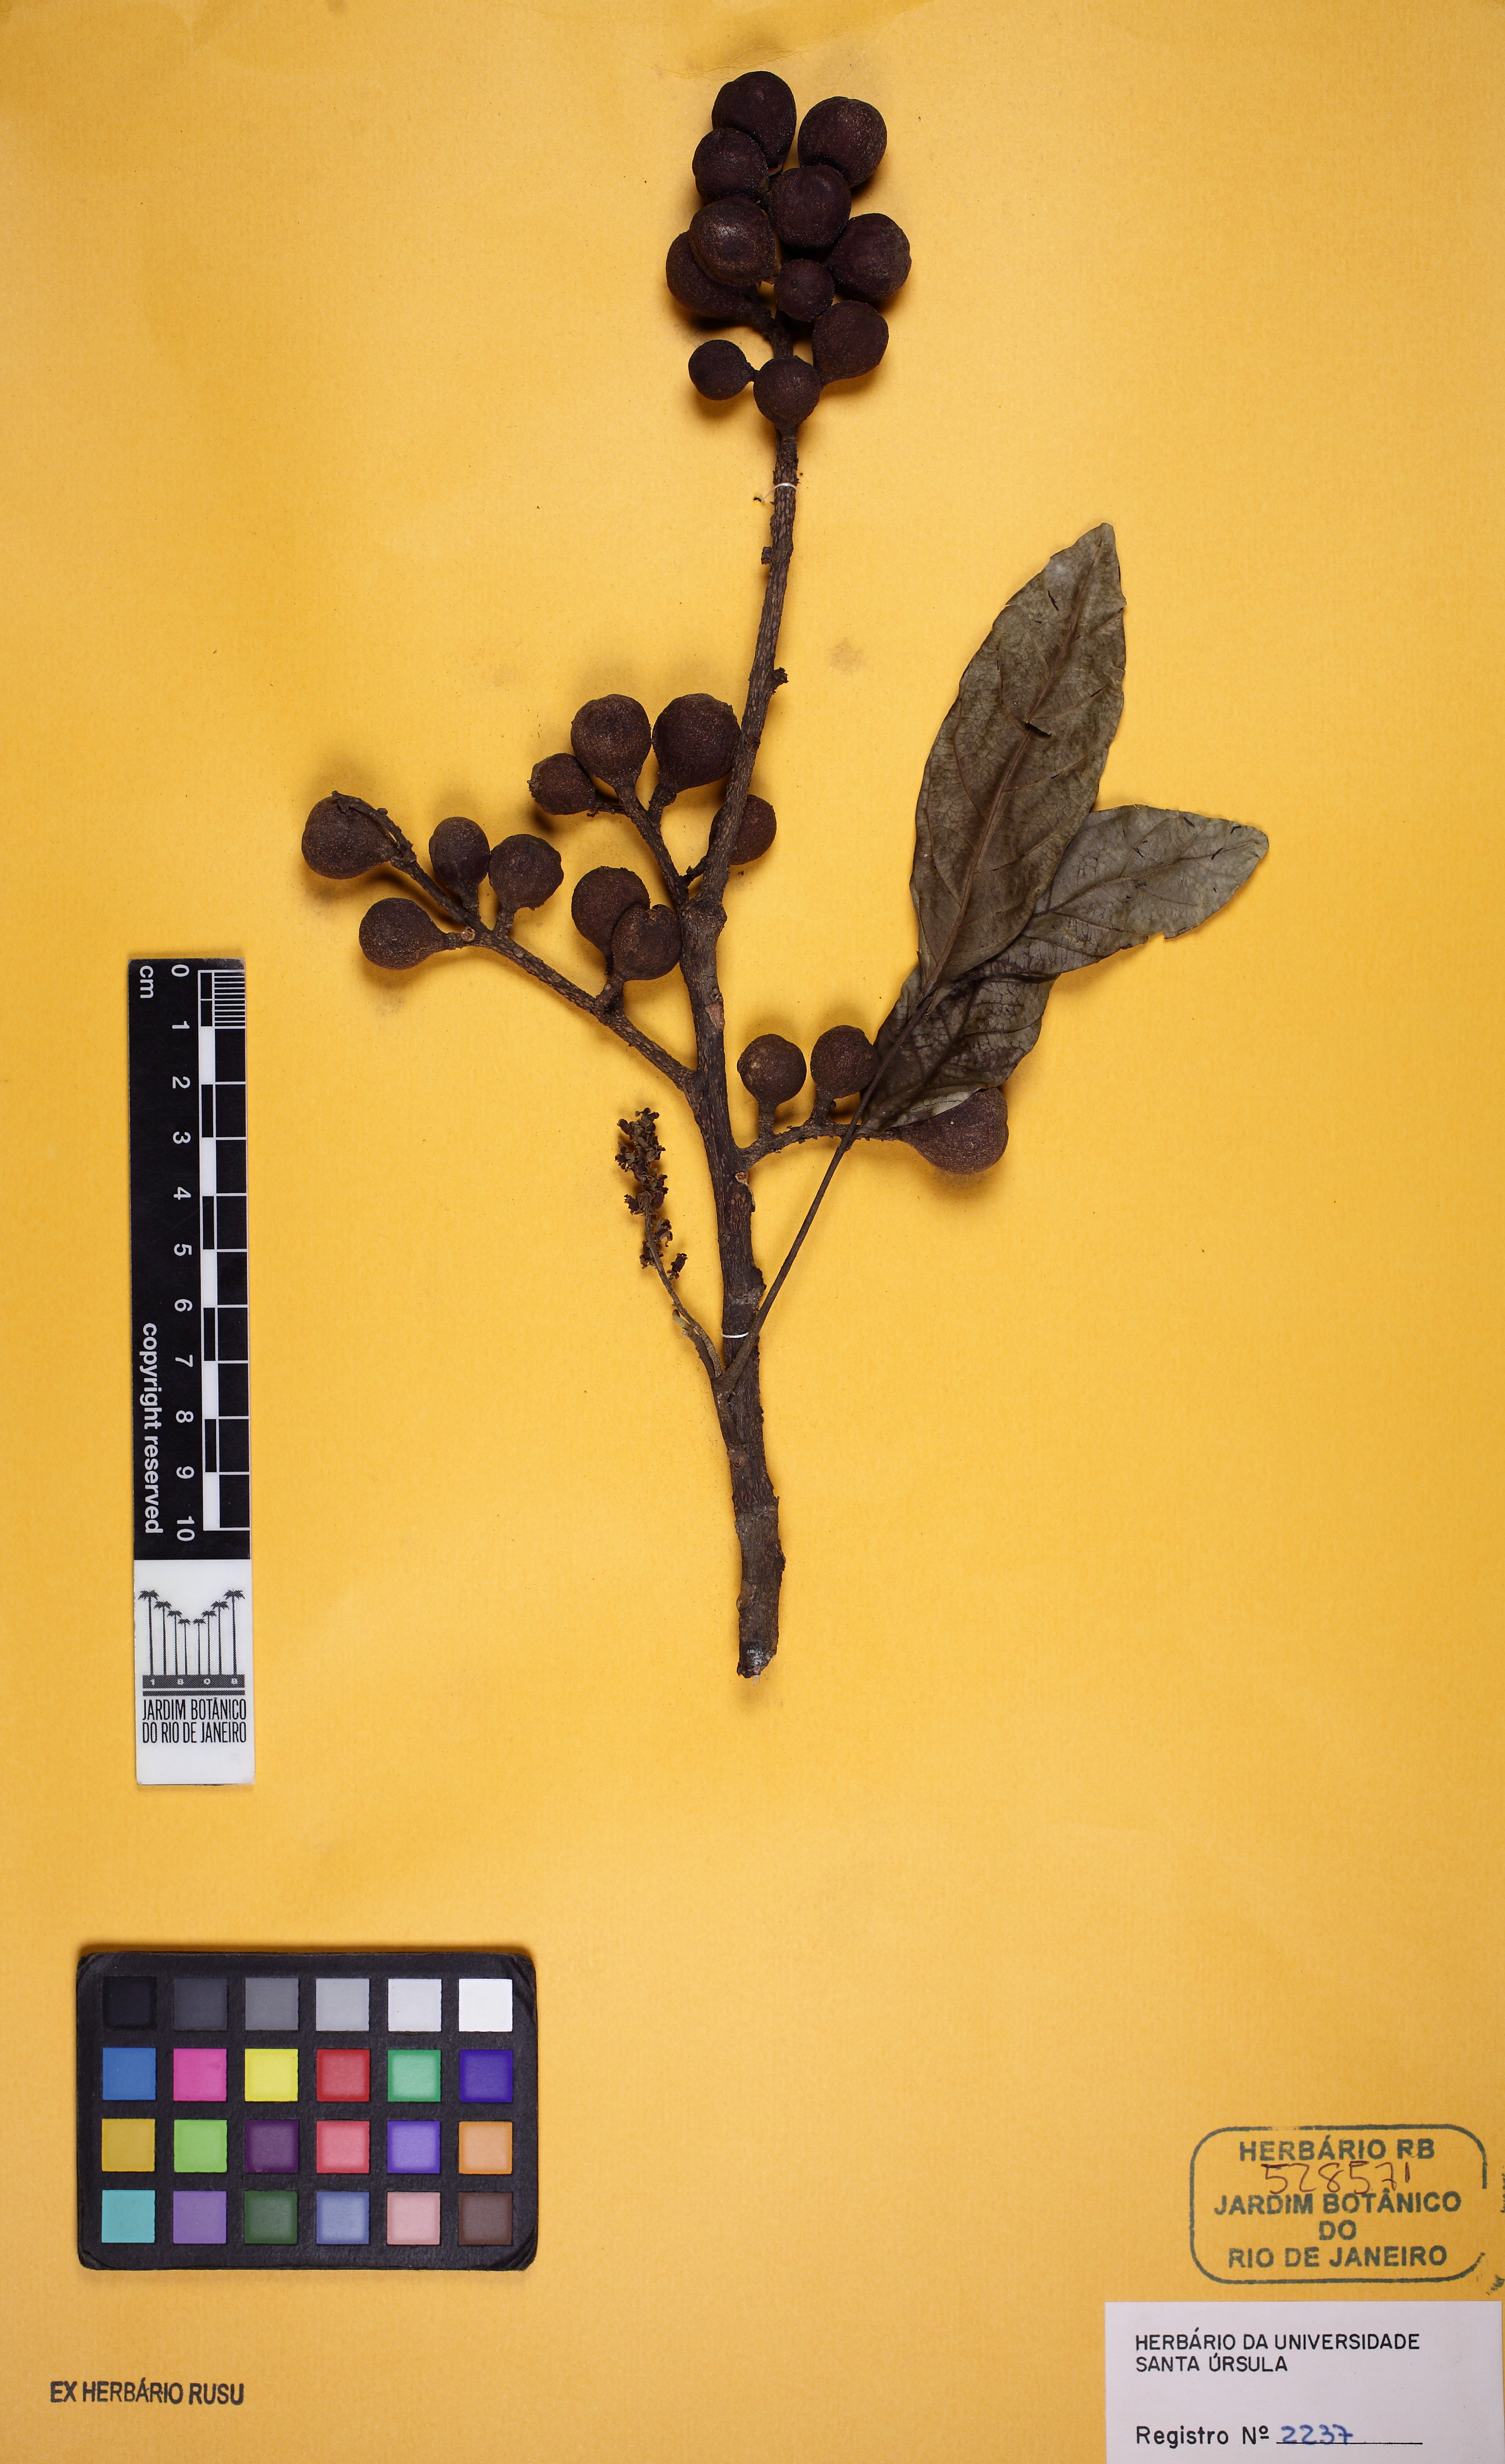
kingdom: Plantae
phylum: Tracheophyta
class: Magnoliopsida
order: Sapindales
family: Meliaceae
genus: Guarea
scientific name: Guarea guidonia
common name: American muskwood
